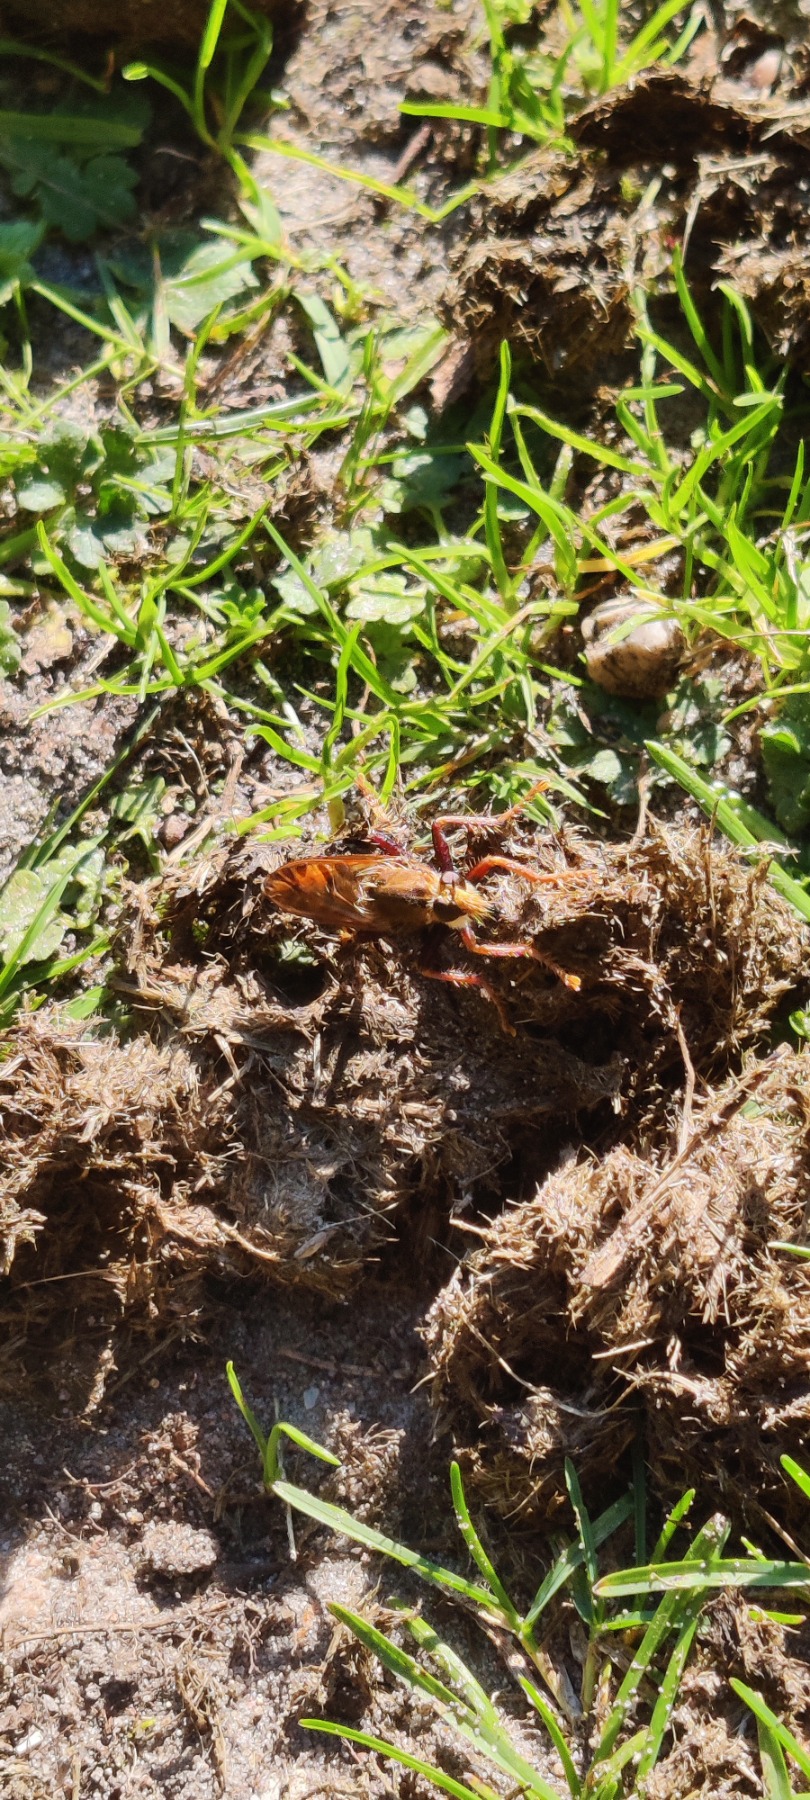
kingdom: Animalia
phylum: Arthropoda
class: Insecta
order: Diptera
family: Asilidae
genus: Asilus
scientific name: Asilus crabroniformis
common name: Stor gødningsrovflue
